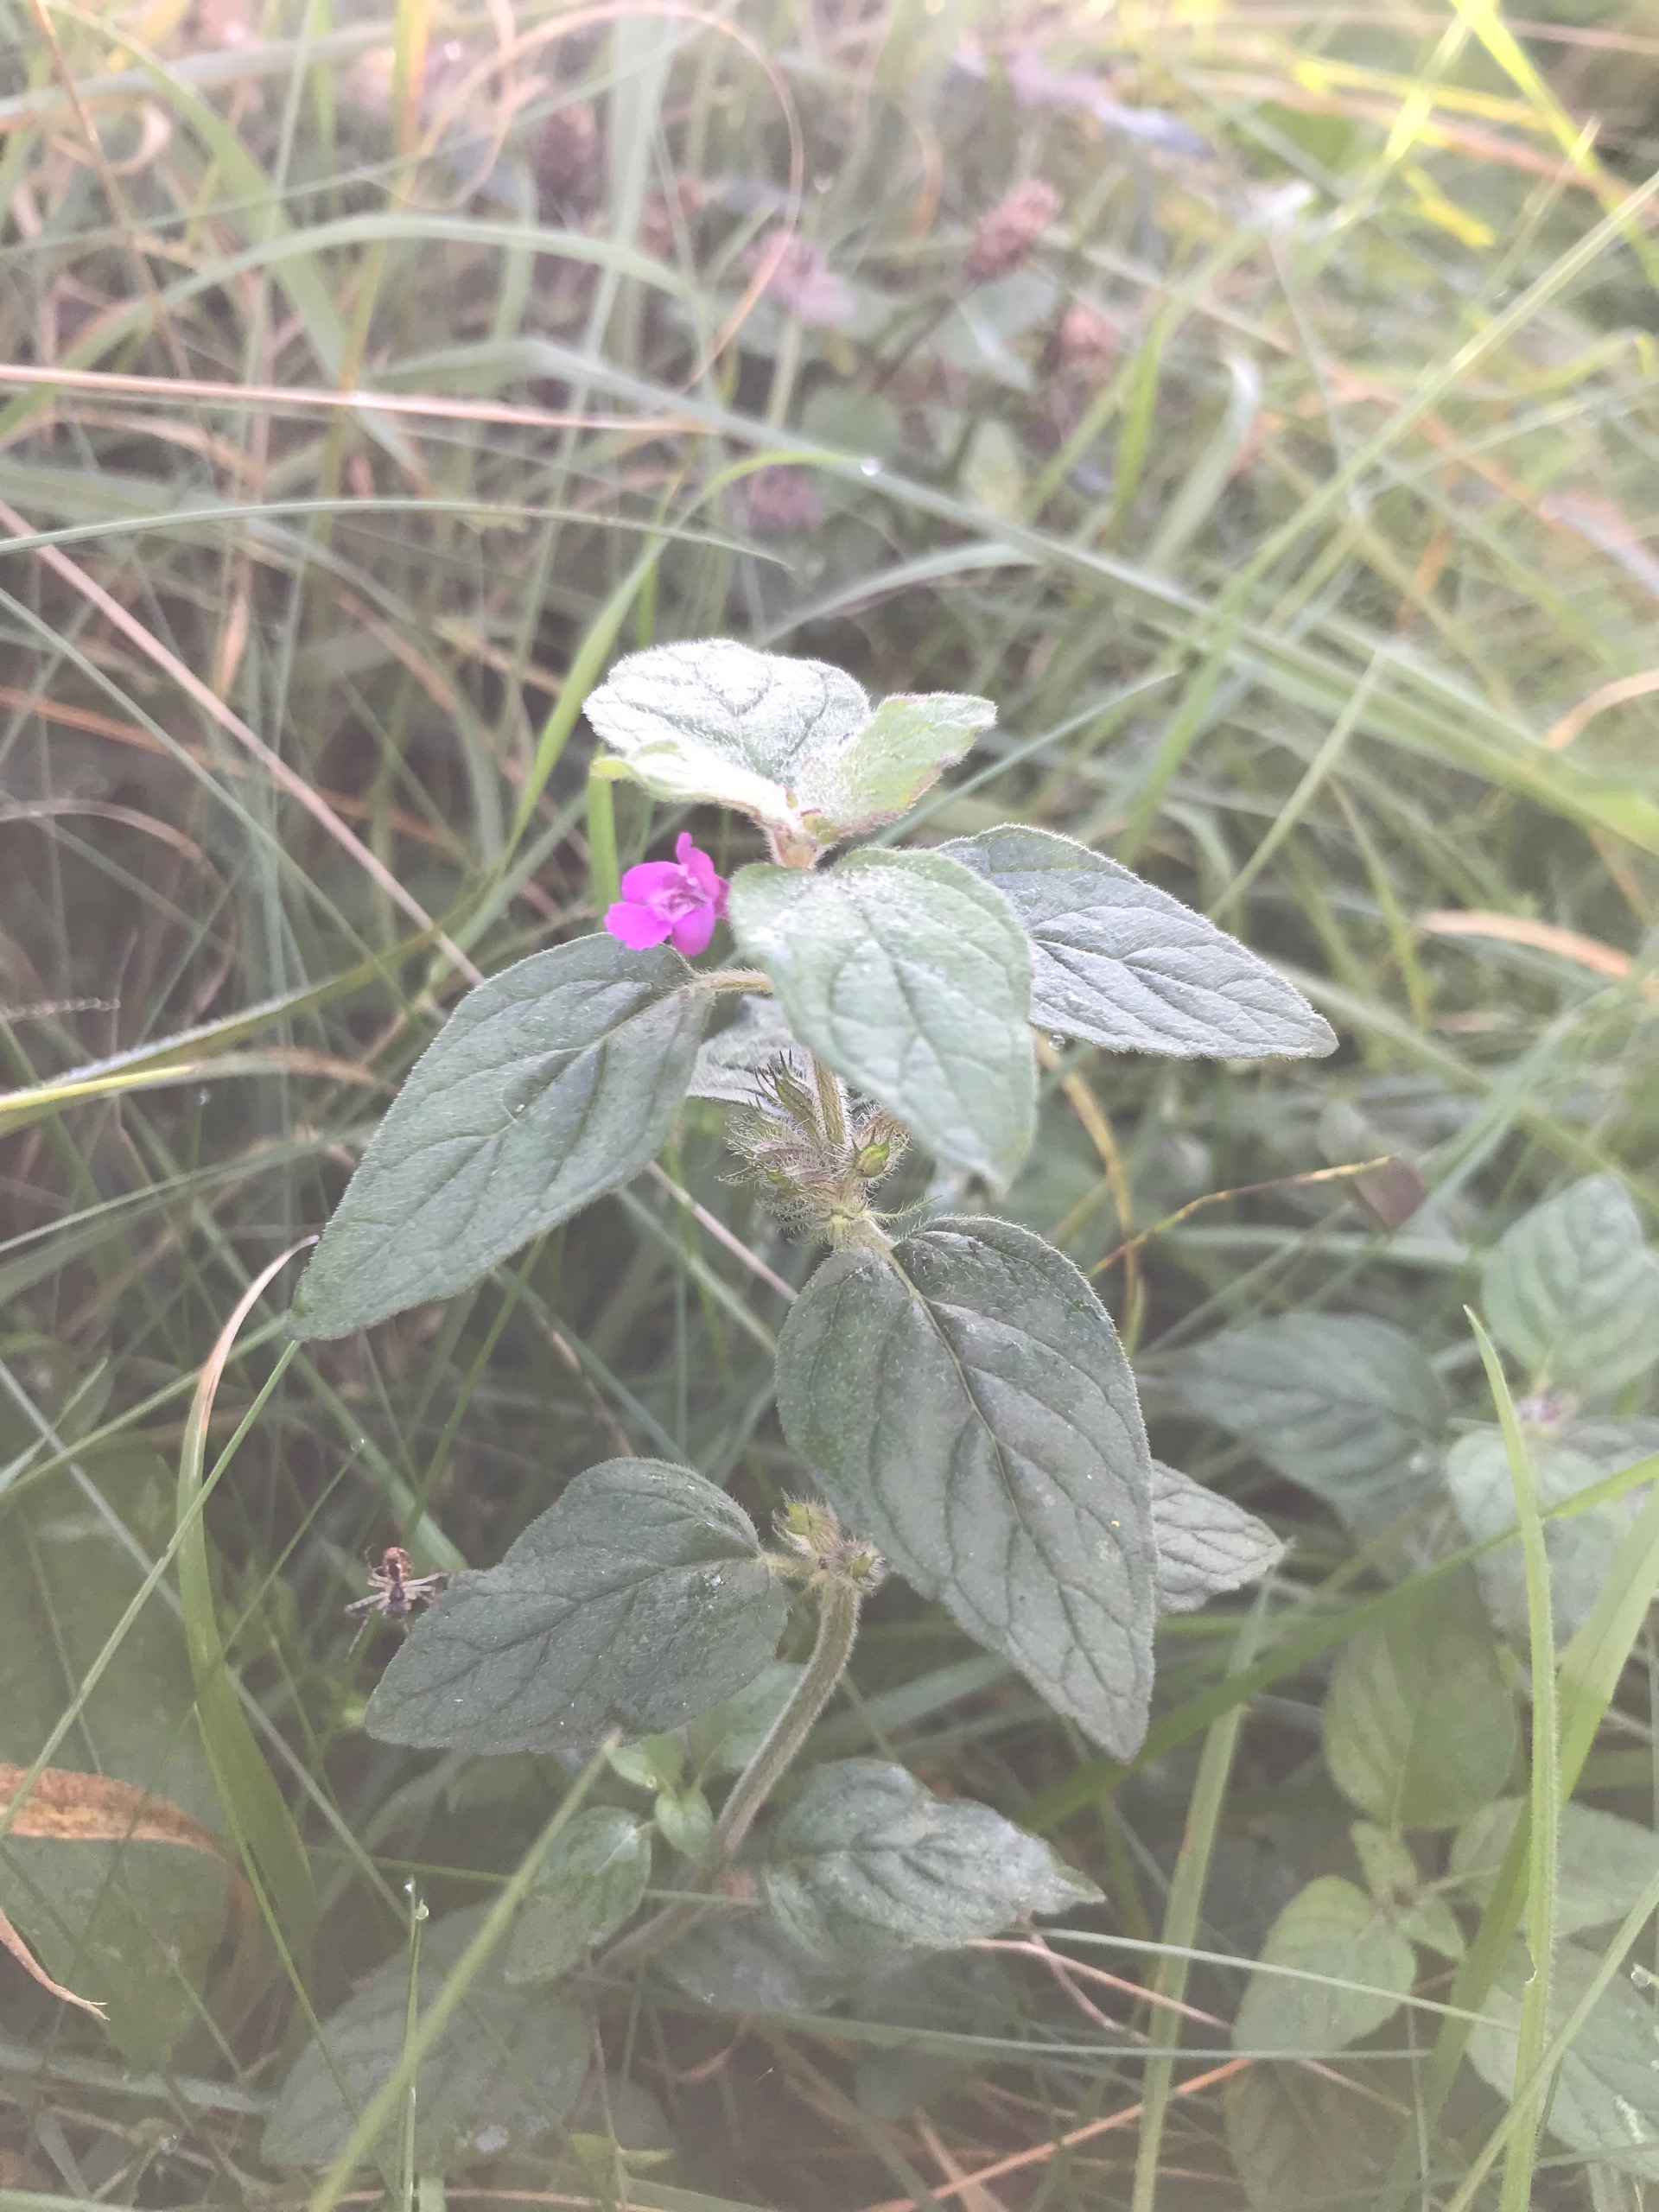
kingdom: Plantae
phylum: Tracheophyta
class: Magnoliopsida
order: Lamiales
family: Lamiaceae
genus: Clinopodium
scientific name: Clinopodium vulgare
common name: Kransbørste
